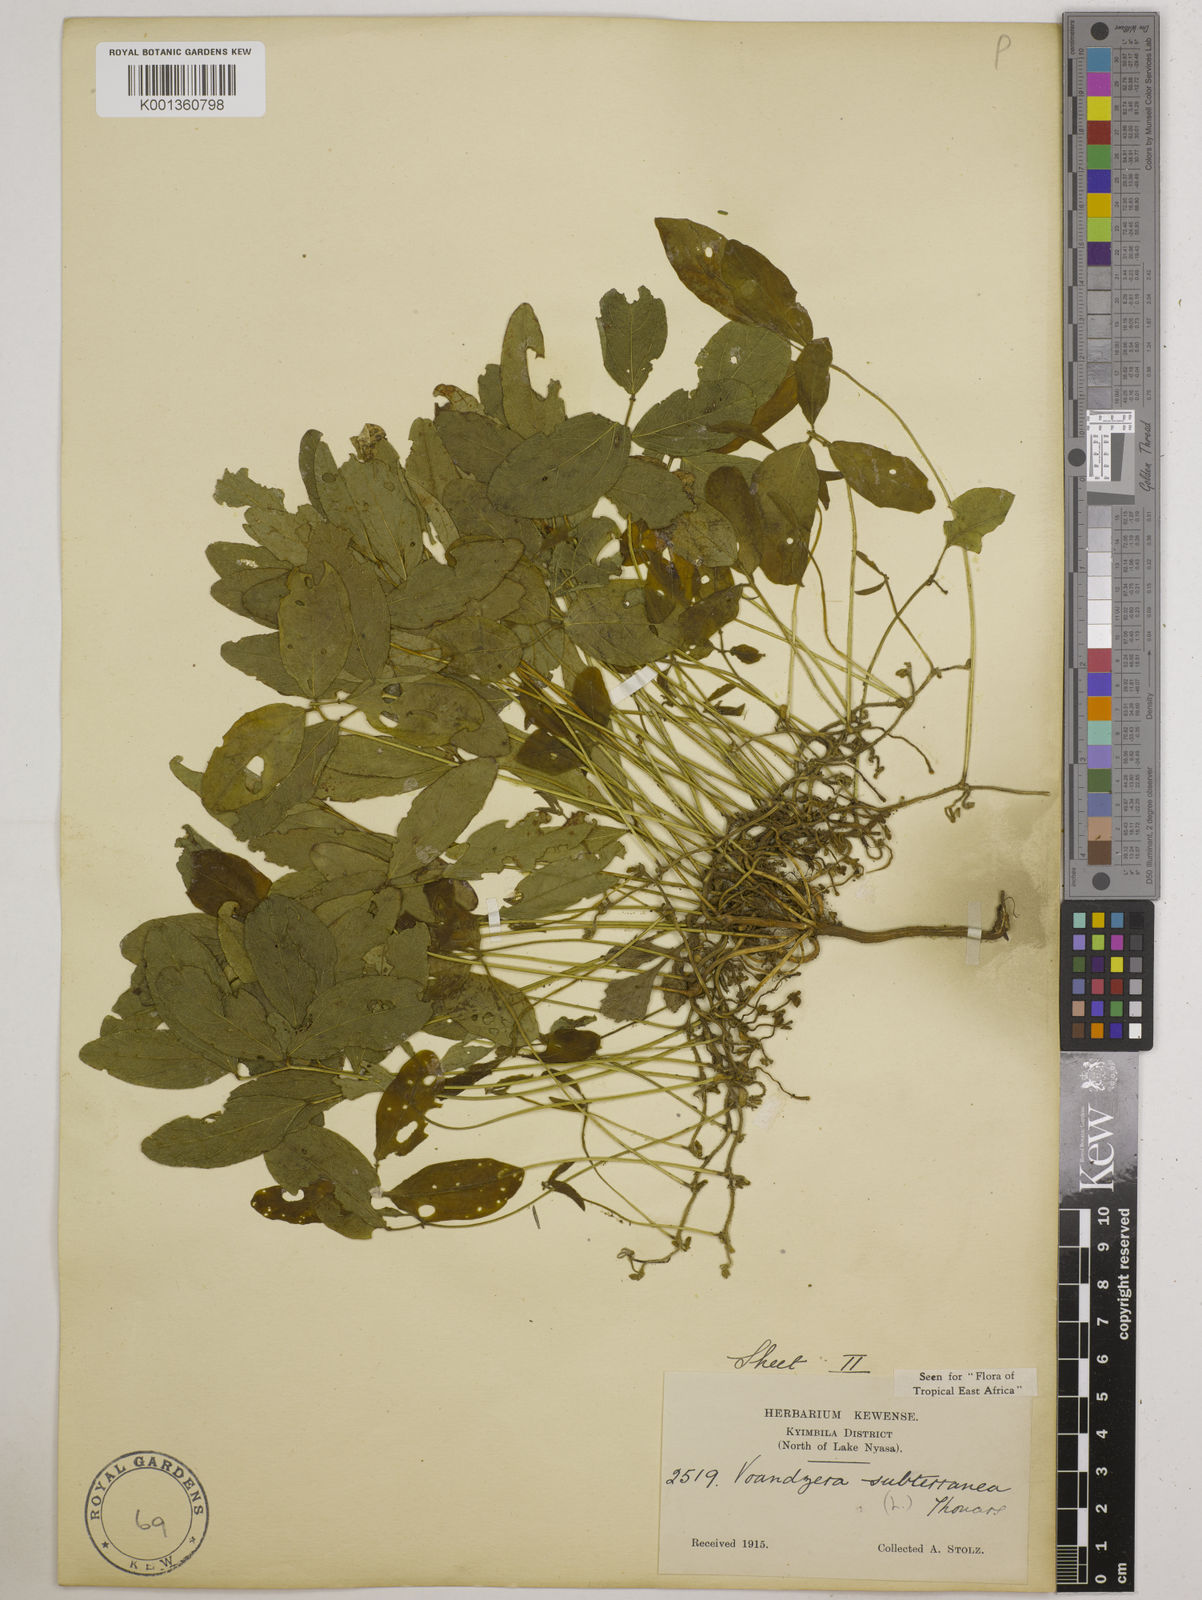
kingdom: Plantae
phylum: Tracheophyta
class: Magnoliopsida
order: Fabales
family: Fabaceae
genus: Vigna
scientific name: Vigna subterranea
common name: Bambara groundnut
